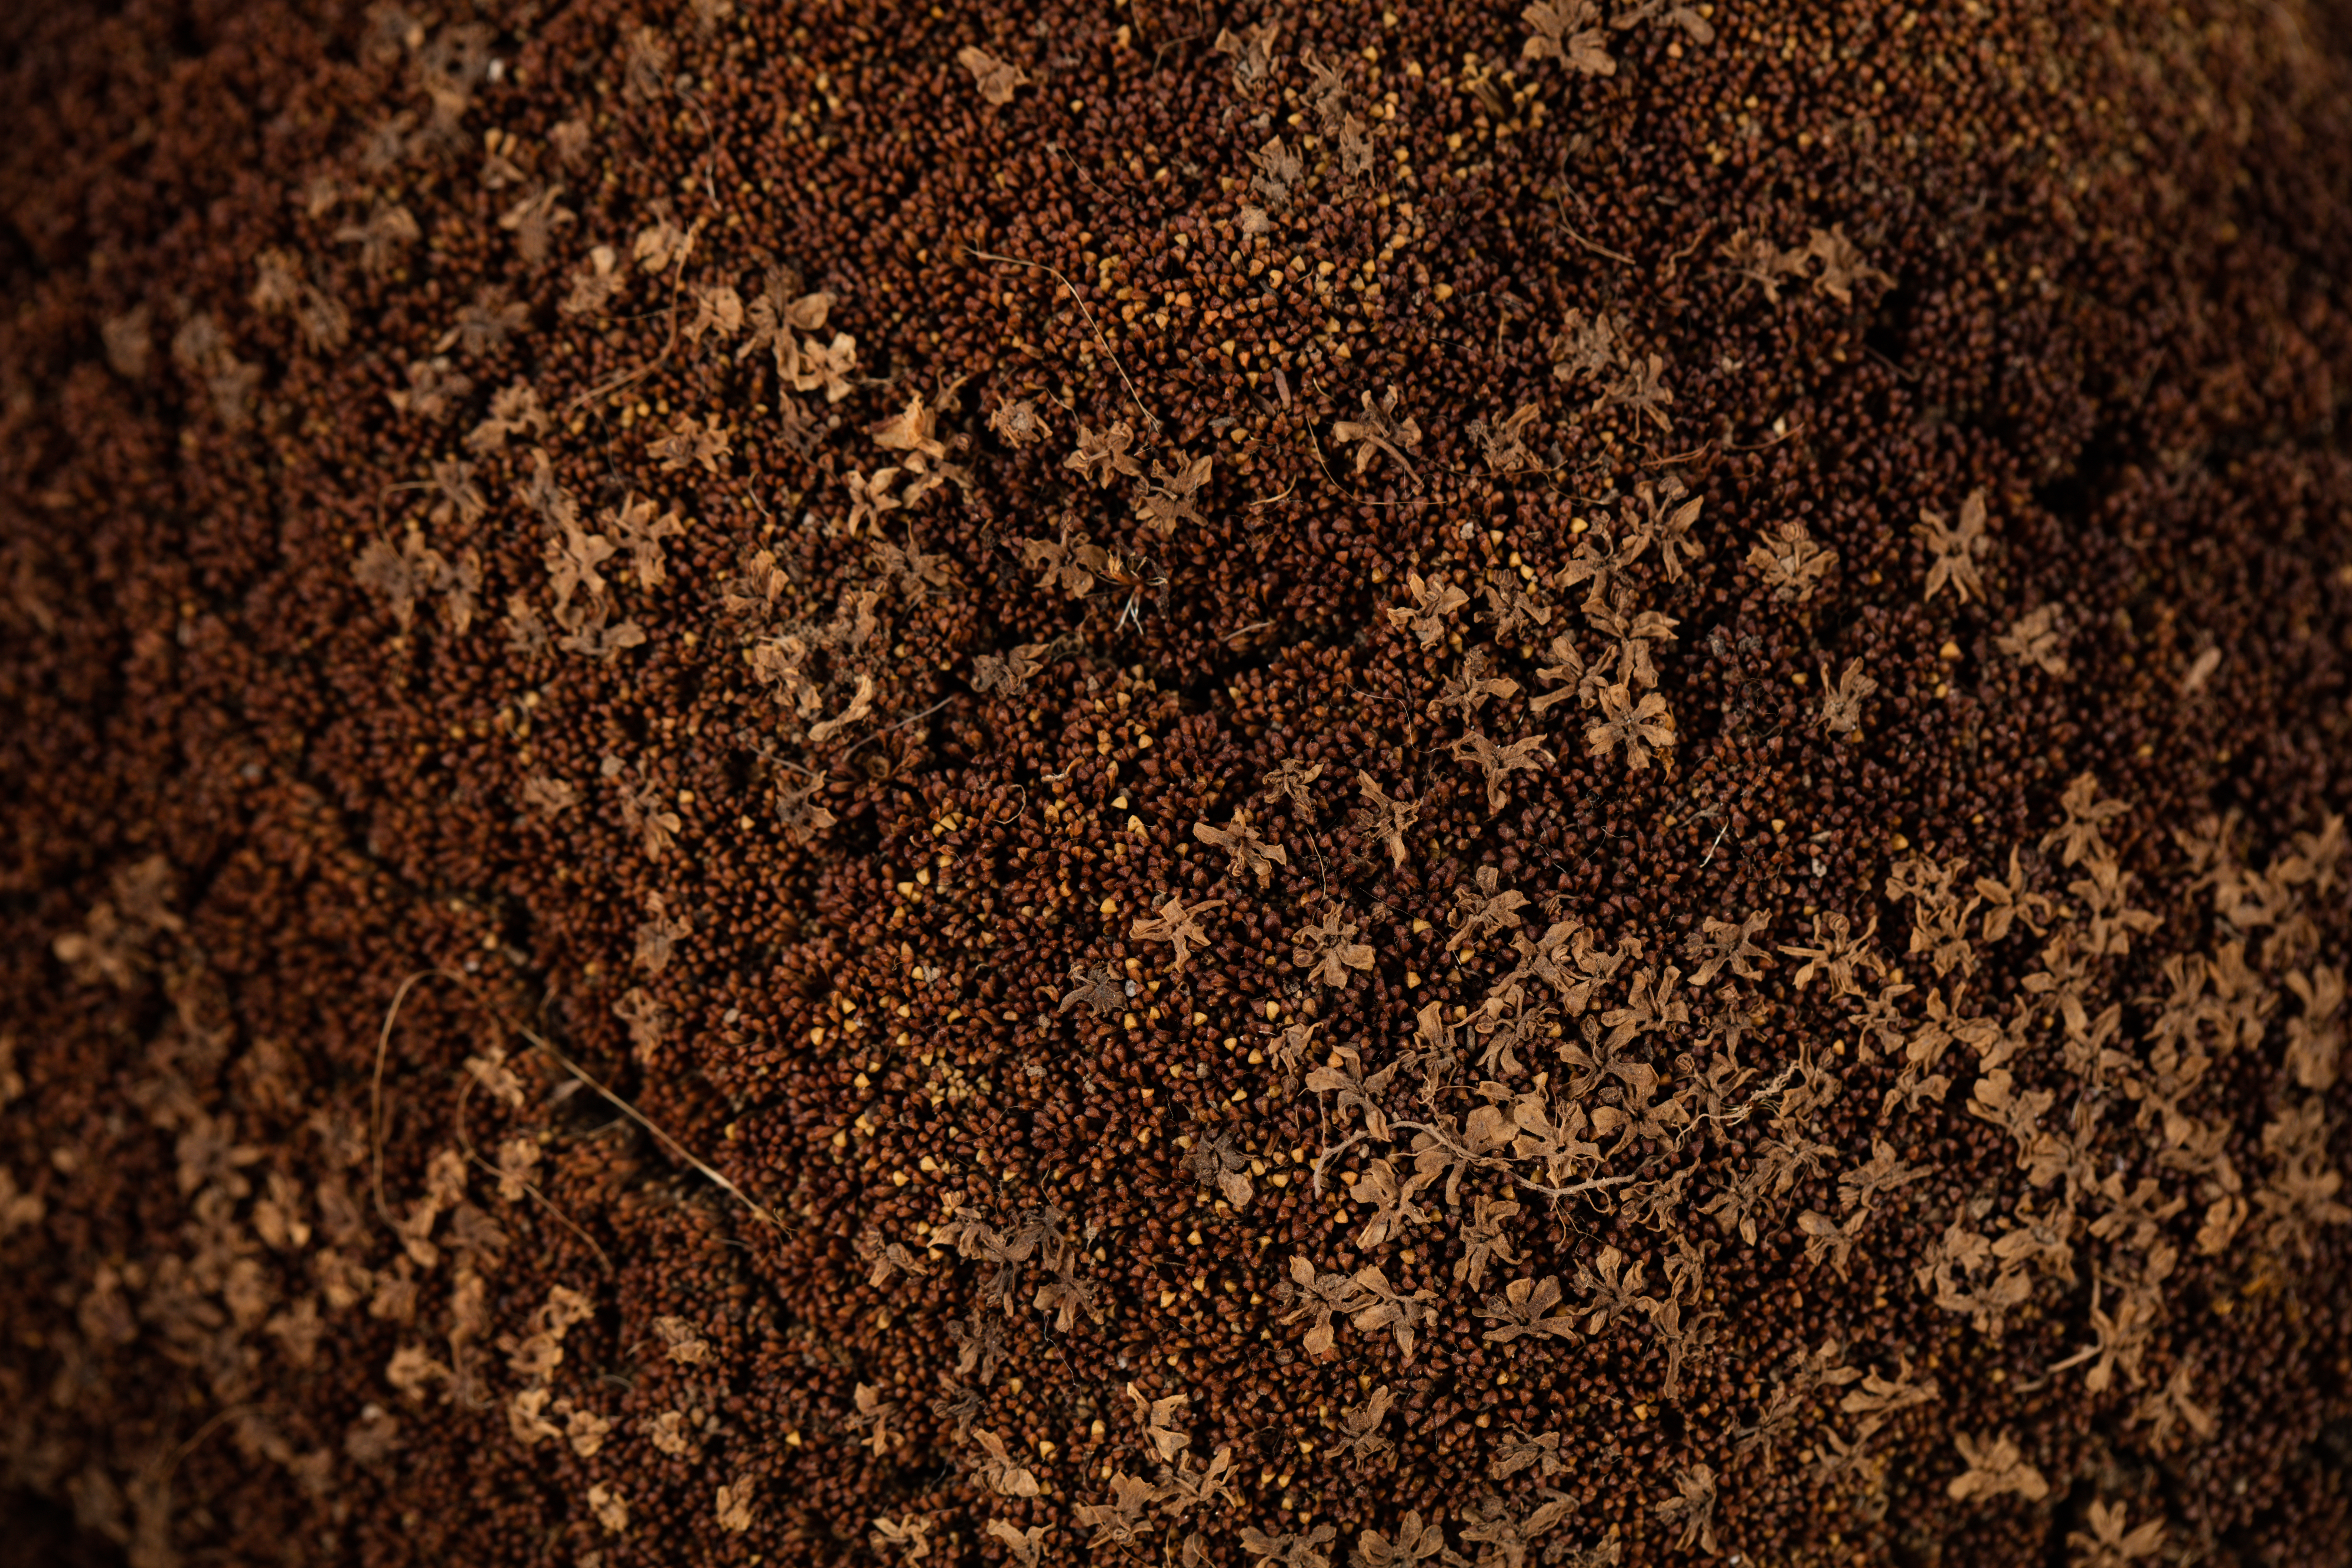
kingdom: Plantae
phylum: Tracheophyta
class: Magnoliopsida
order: Asterales
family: Stylidiaceae
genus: Phyllachne
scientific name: Phyllachne colensoi
